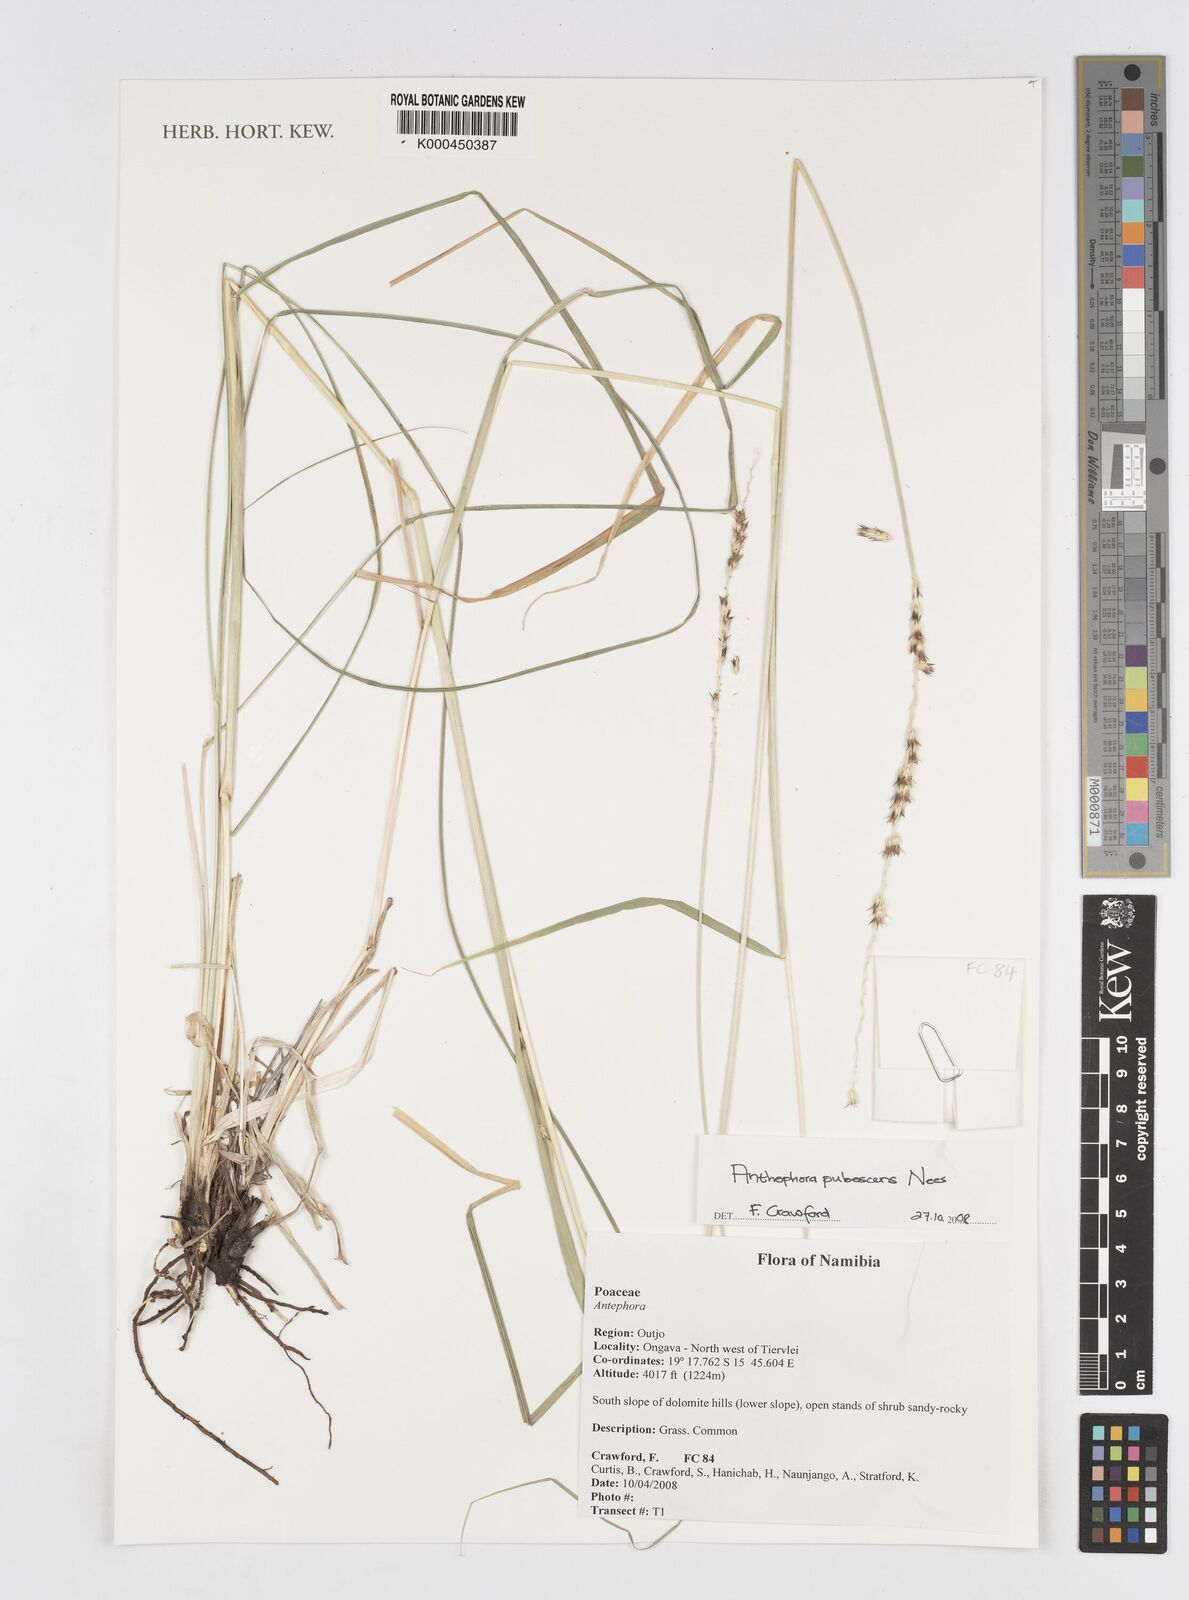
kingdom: Plantae
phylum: Tracheophyta
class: Liliopsida
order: Poales
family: Poaceae
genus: Anthephora
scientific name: Anthephora pubescens
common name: Wool grass
